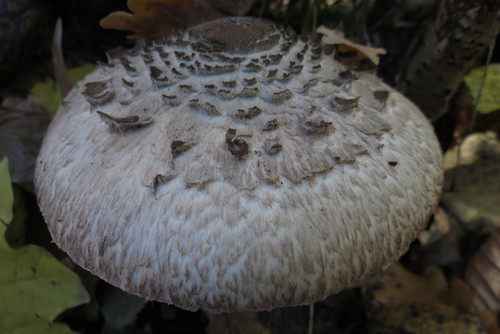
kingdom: Fungi
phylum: Basidiomycota
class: Agaricomycetes
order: Agaricales
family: Agaricaceae
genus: Macrolepiota
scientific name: Macrolepiota procera
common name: Parasol
